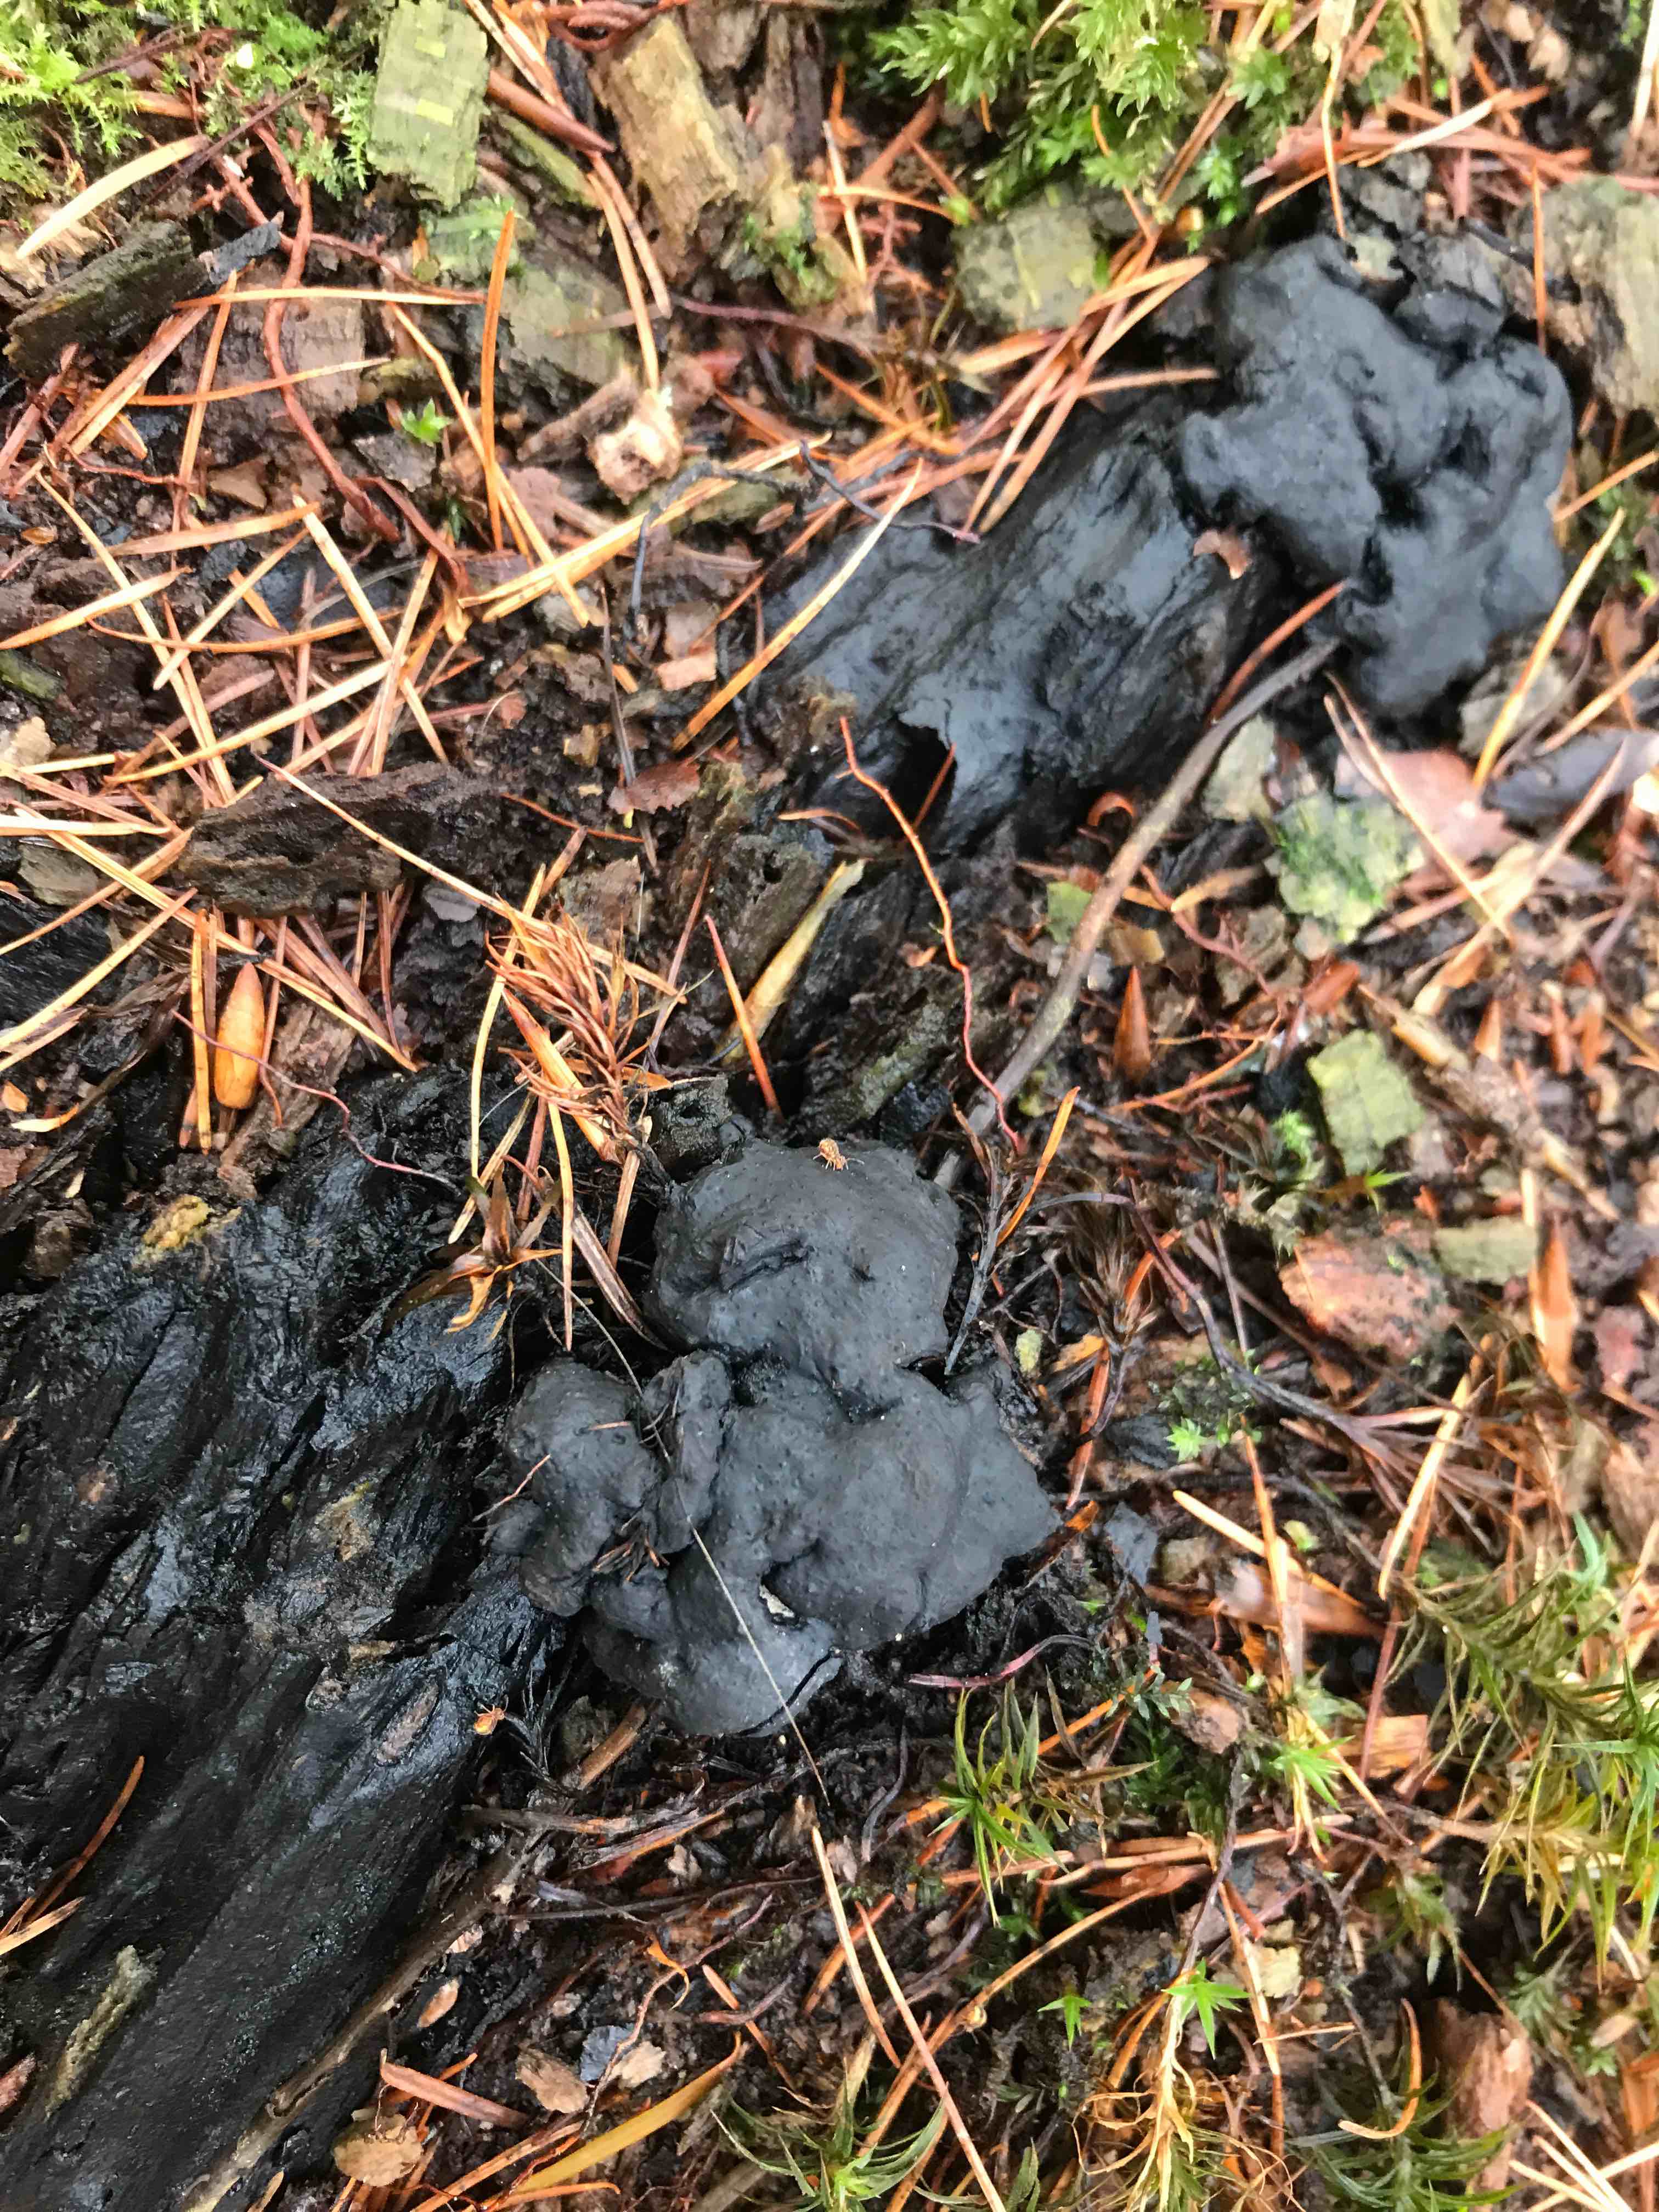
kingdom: Fungi
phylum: Ascomycota
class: Sordariomycetes
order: Xylariales
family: Xylariaceae
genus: Kretzschmaria
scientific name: Kretzschmaria deusta
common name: stor kulsvamp
